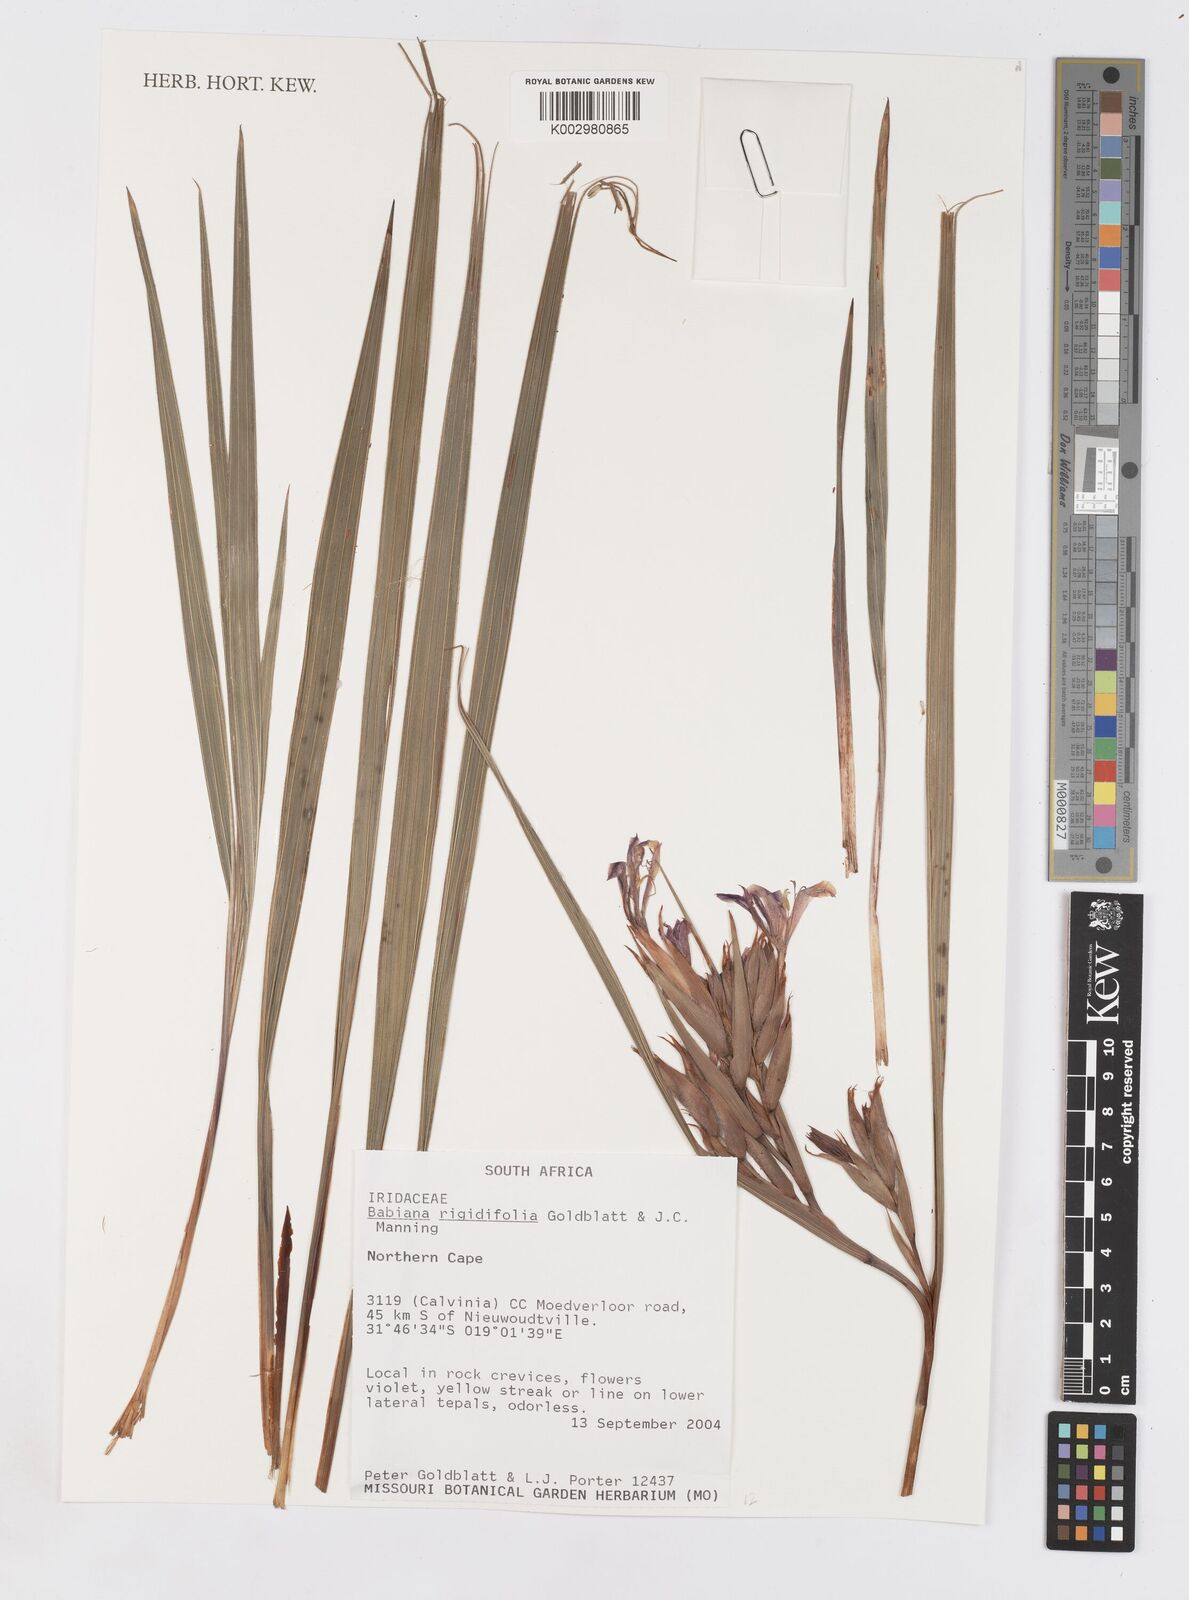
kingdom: Plantae
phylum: Tracheophyta
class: Liliopsida
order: Asparagales
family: Iridaceae
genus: Babiana
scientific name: Babiana rigidifolia
